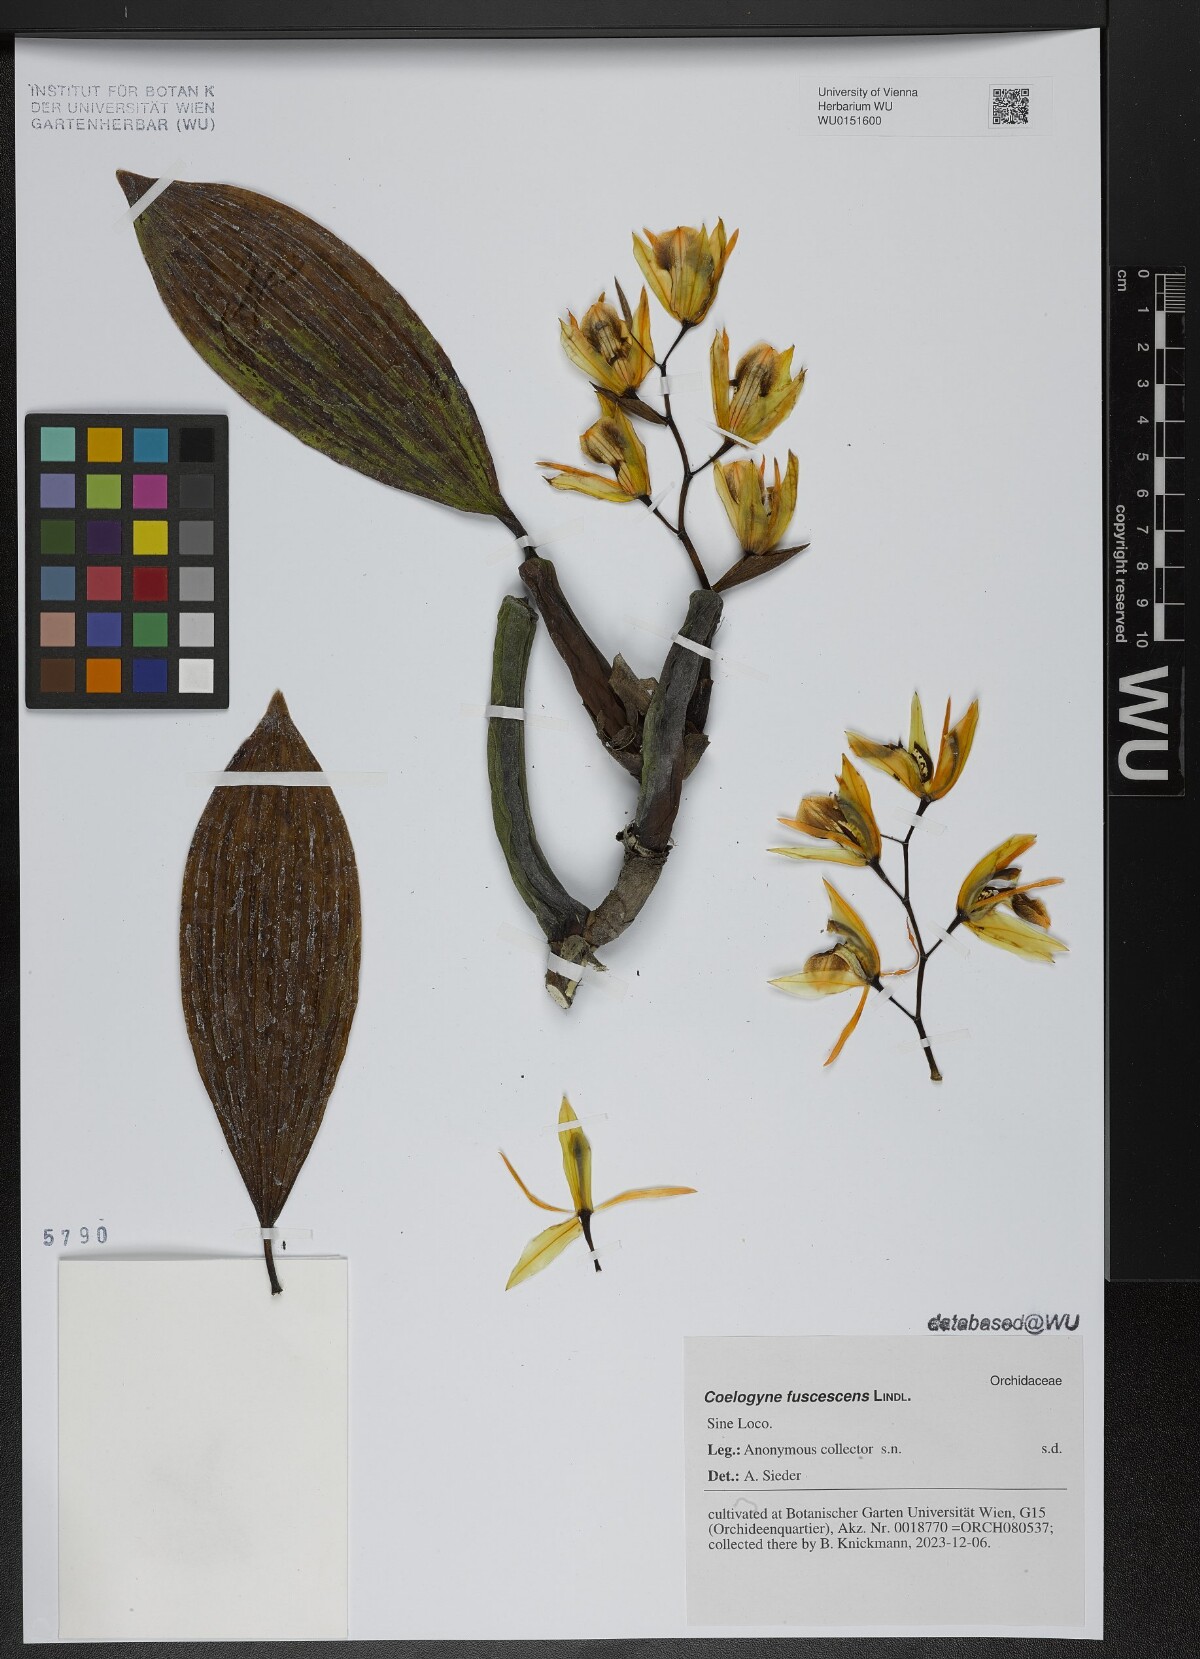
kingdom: Plantae
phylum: Tracheophyta
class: Liliopsida
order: Asparagales
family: Orchidaceae
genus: Coelogyne
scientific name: Coelogyne fuscescens
